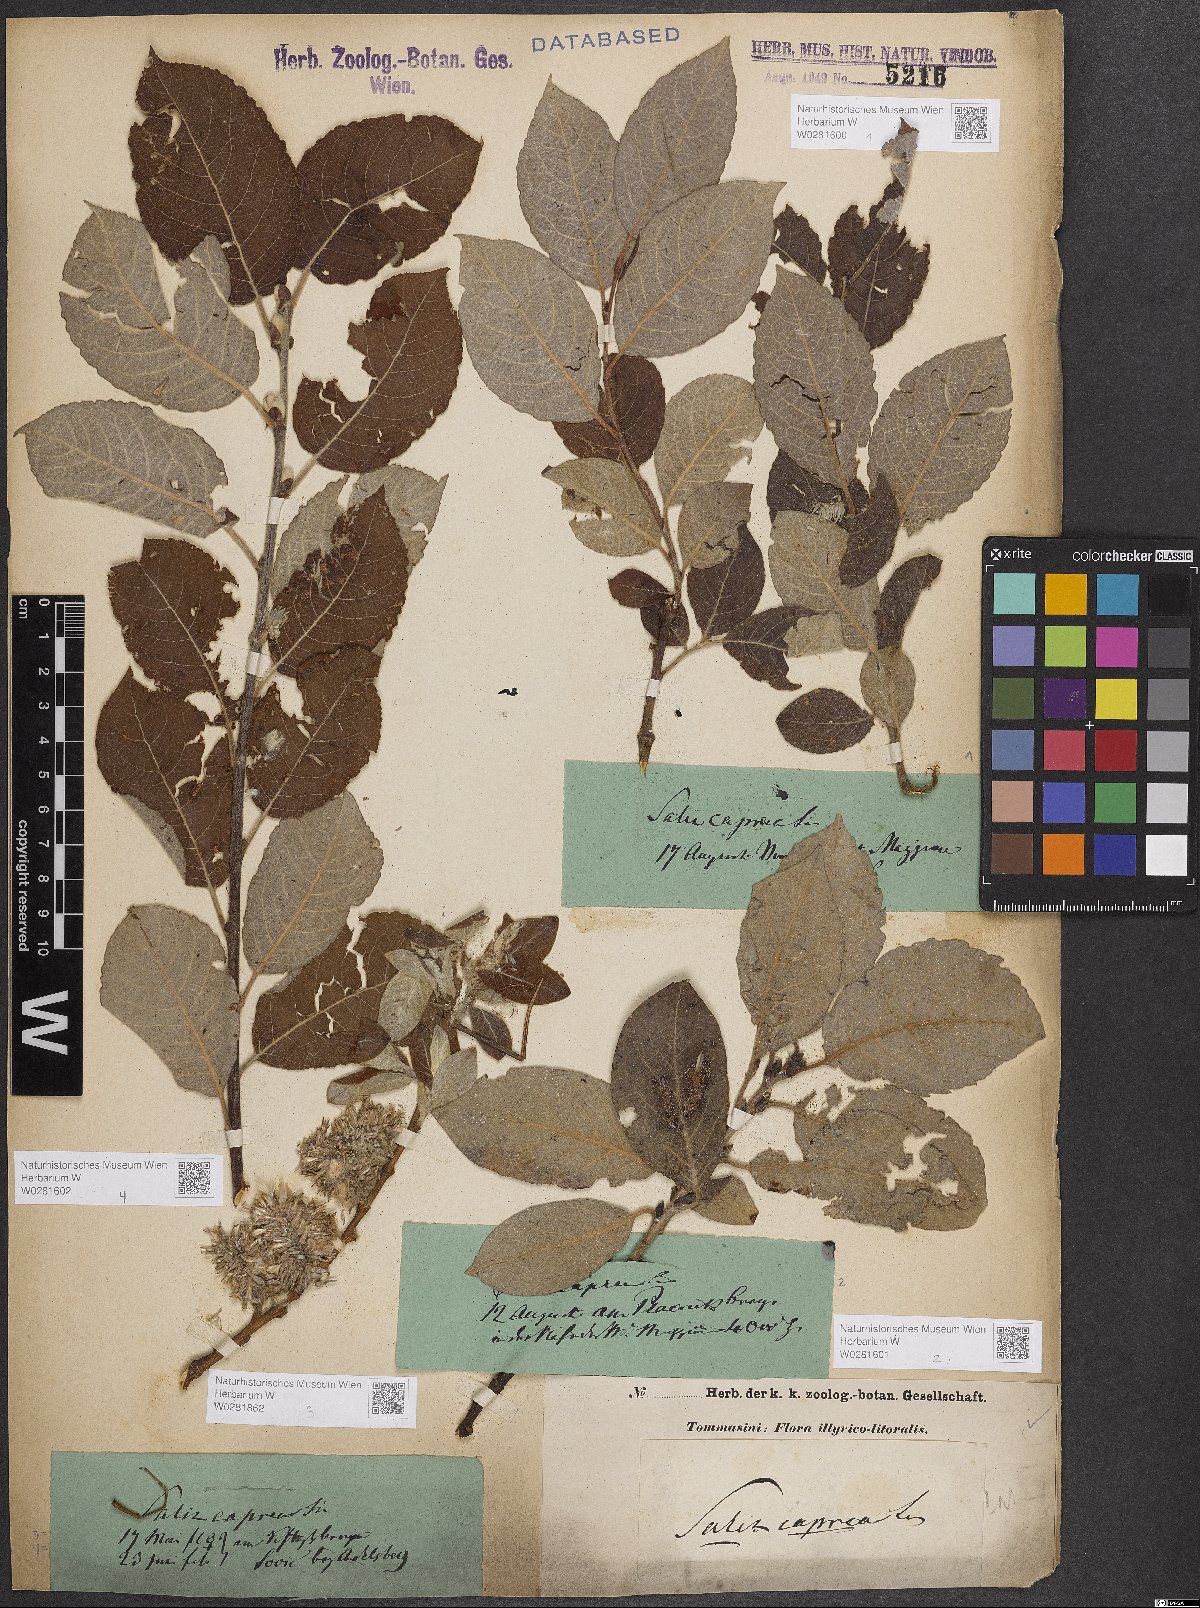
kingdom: Plantae
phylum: Tracheophyta
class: Magnoliopsida
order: Malpighiales
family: Salicaceae
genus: Salix
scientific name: Salix caprea
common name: Goat willow
